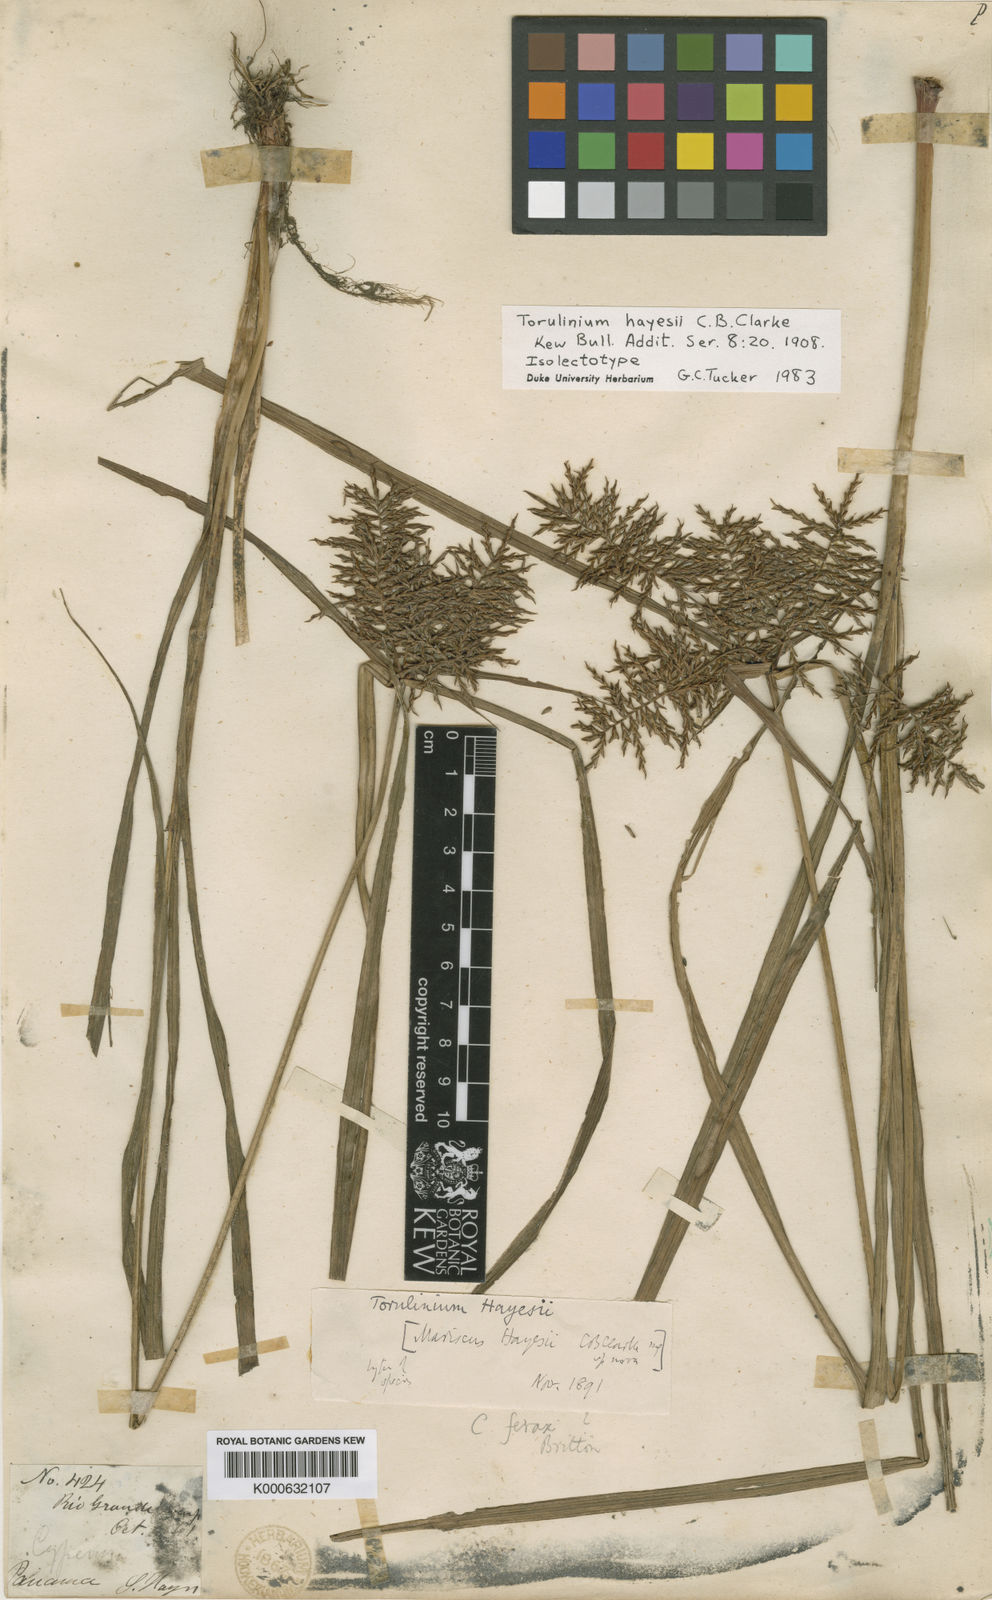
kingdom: Plantae
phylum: Tracheophyta
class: Liliopsida
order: Poales
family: Cyperaceae
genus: Cyperus
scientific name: Cyperus odoratus
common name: Fragrant flatsedge
